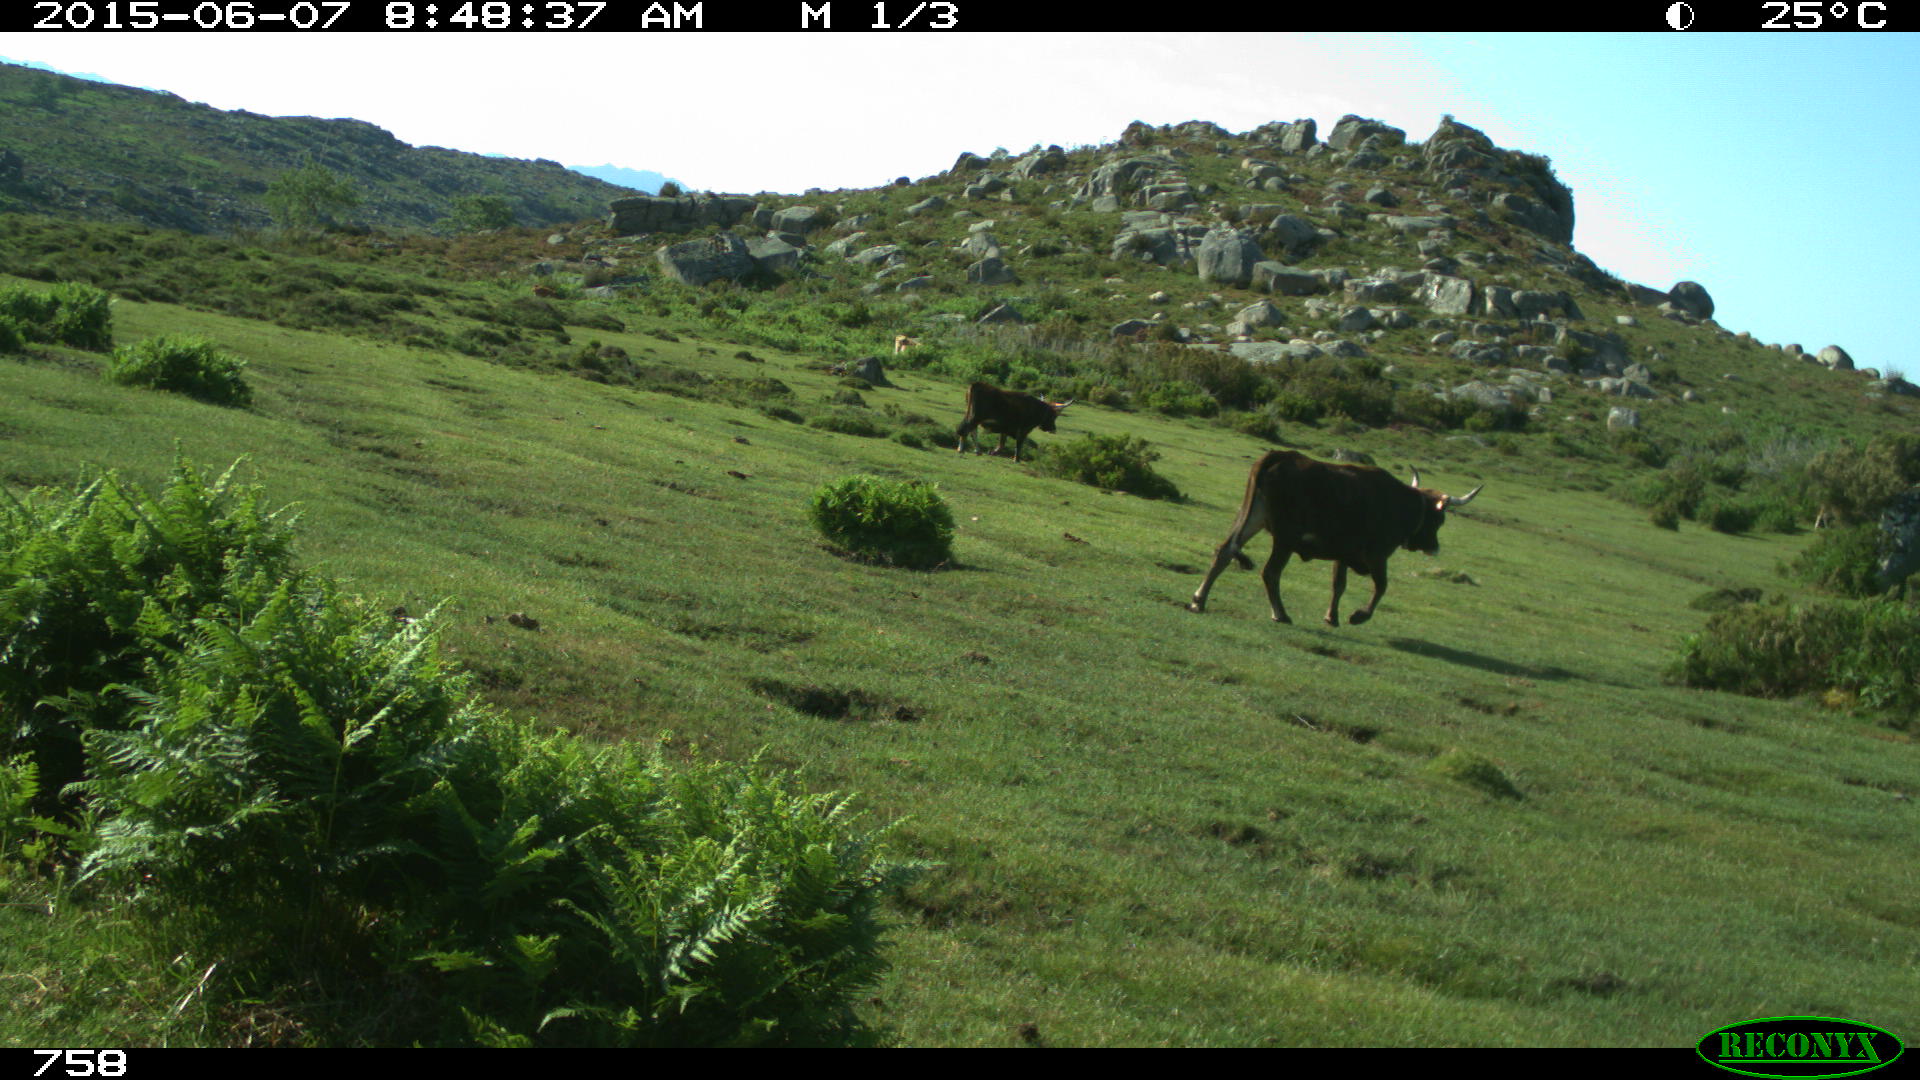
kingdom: Animalia
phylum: Chordata
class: Mammalia
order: Artiodactyla
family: Bovidae
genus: Bos
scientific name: Bos taurus
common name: Domesticated cattle
